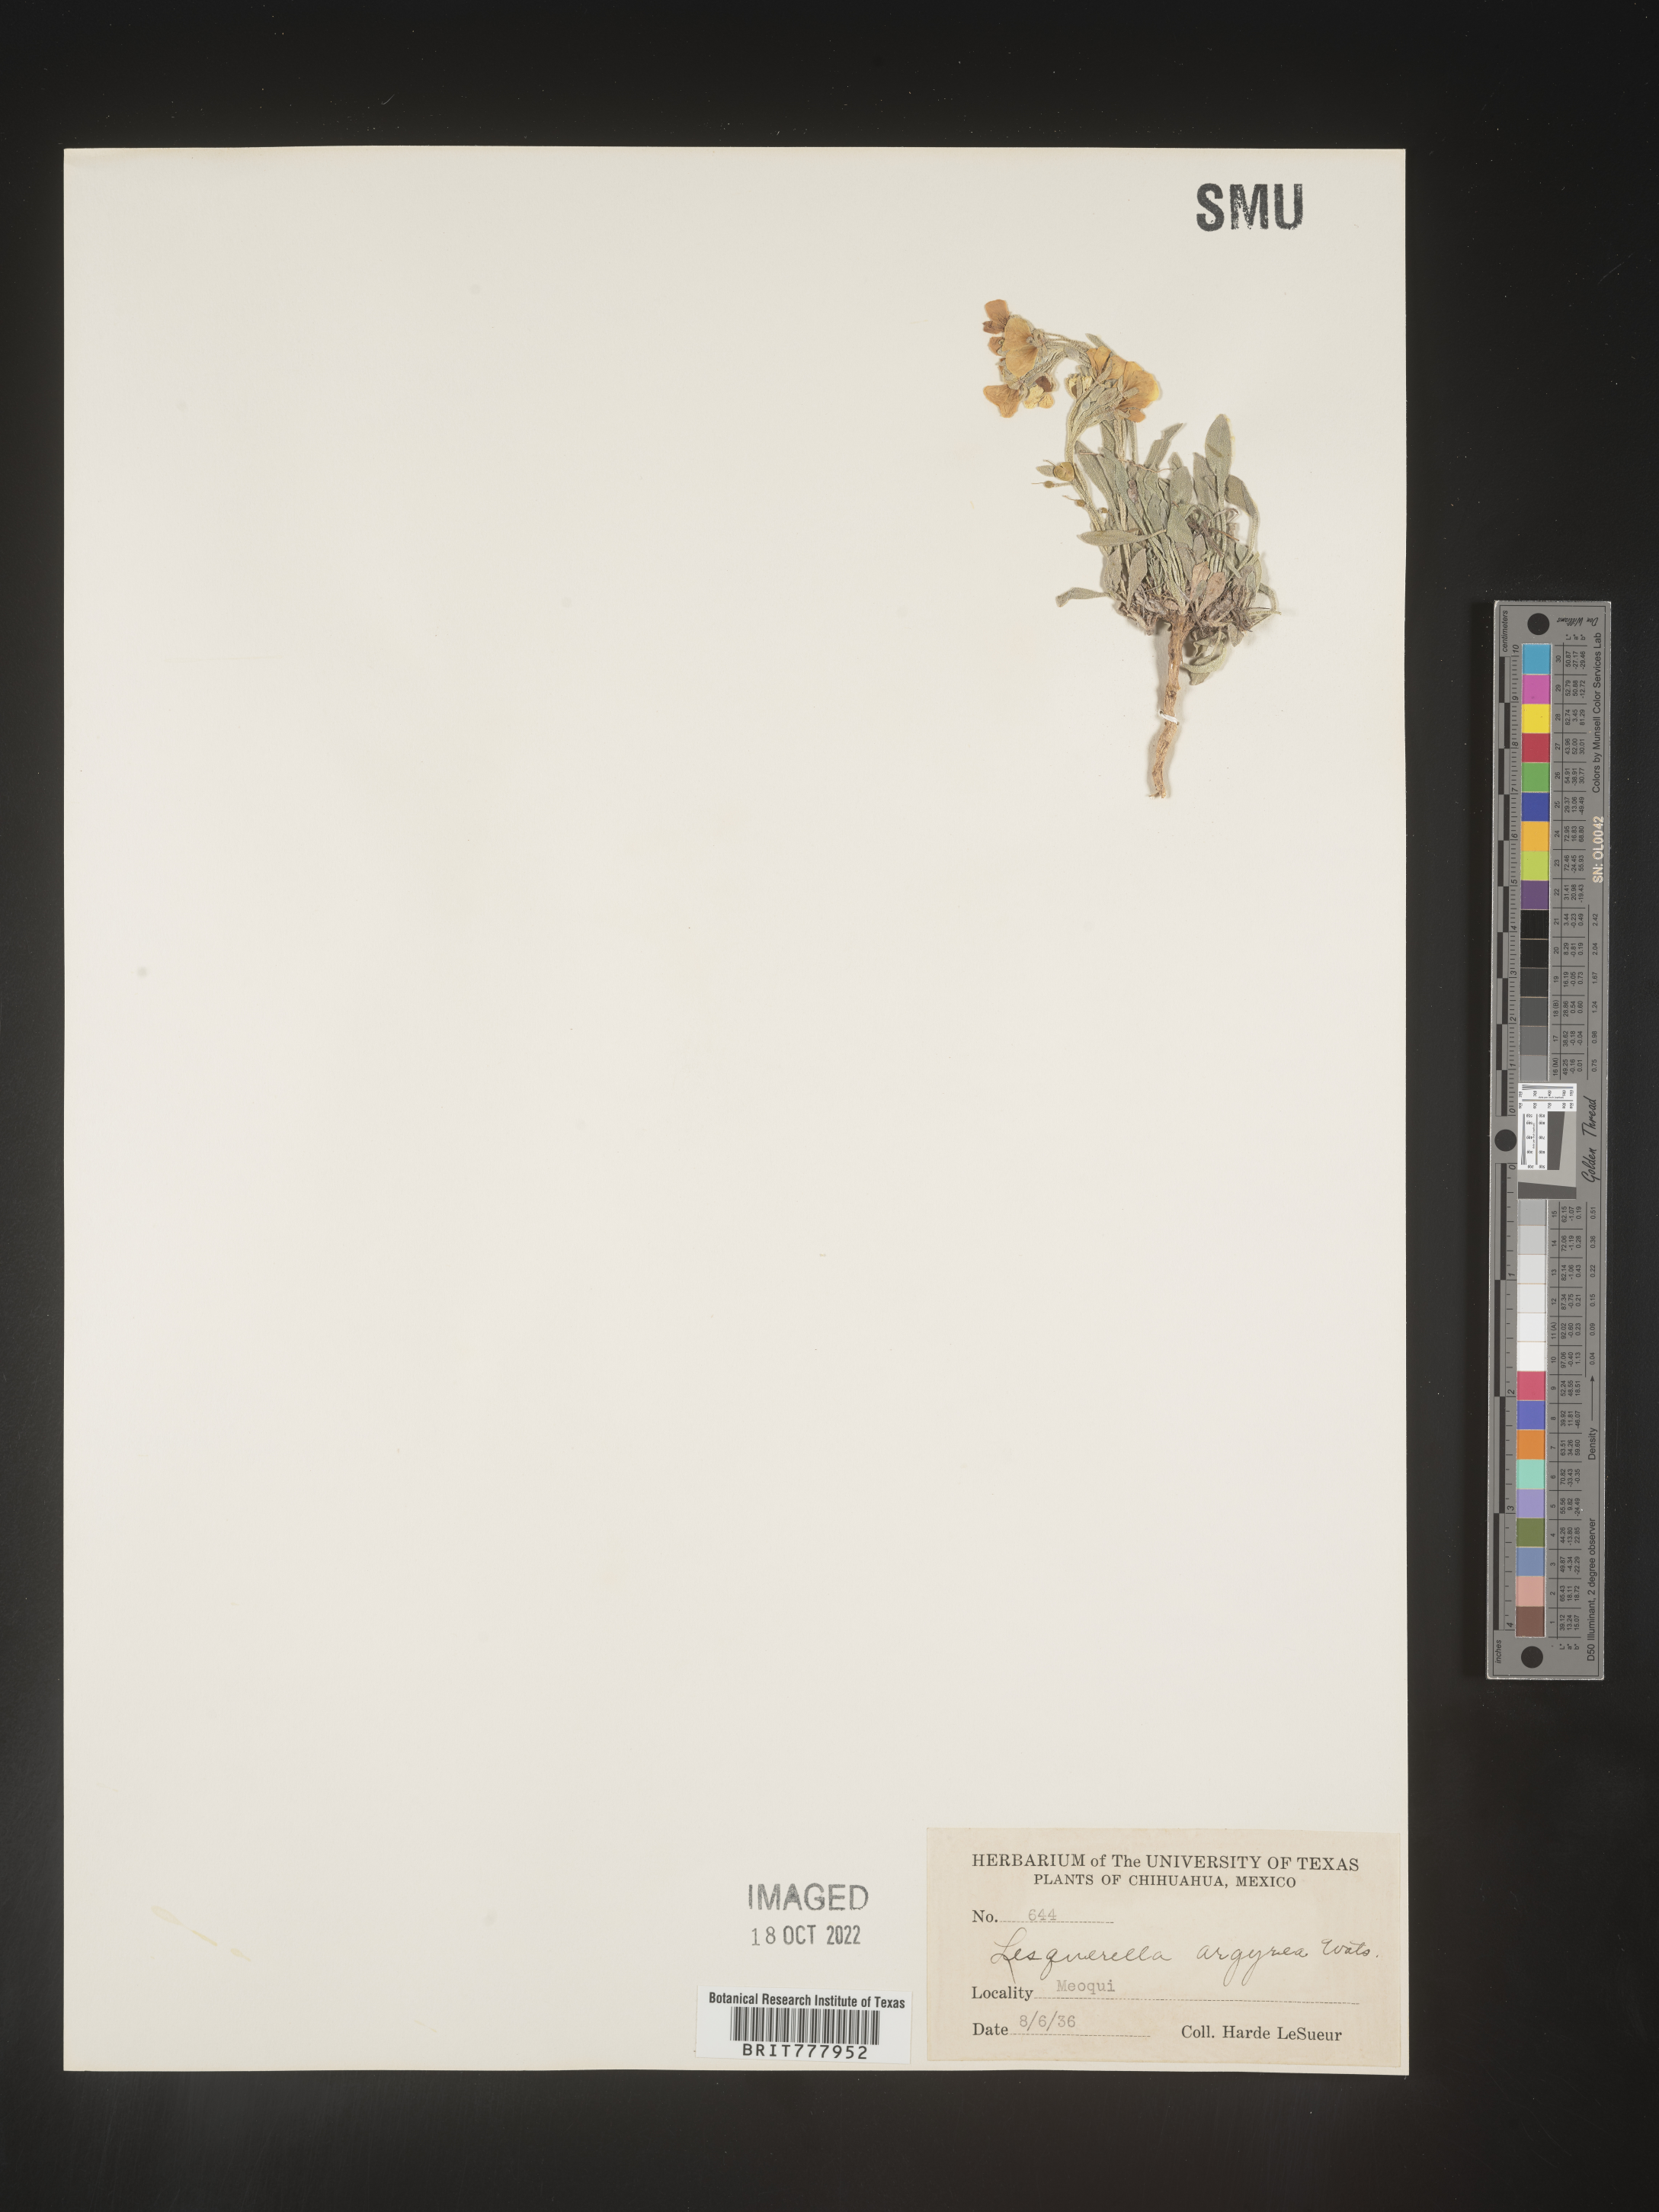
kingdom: Chromista
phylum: Cercozoa
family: Psammonobiotidae
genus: Lesquerella
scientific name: Lesquerella
